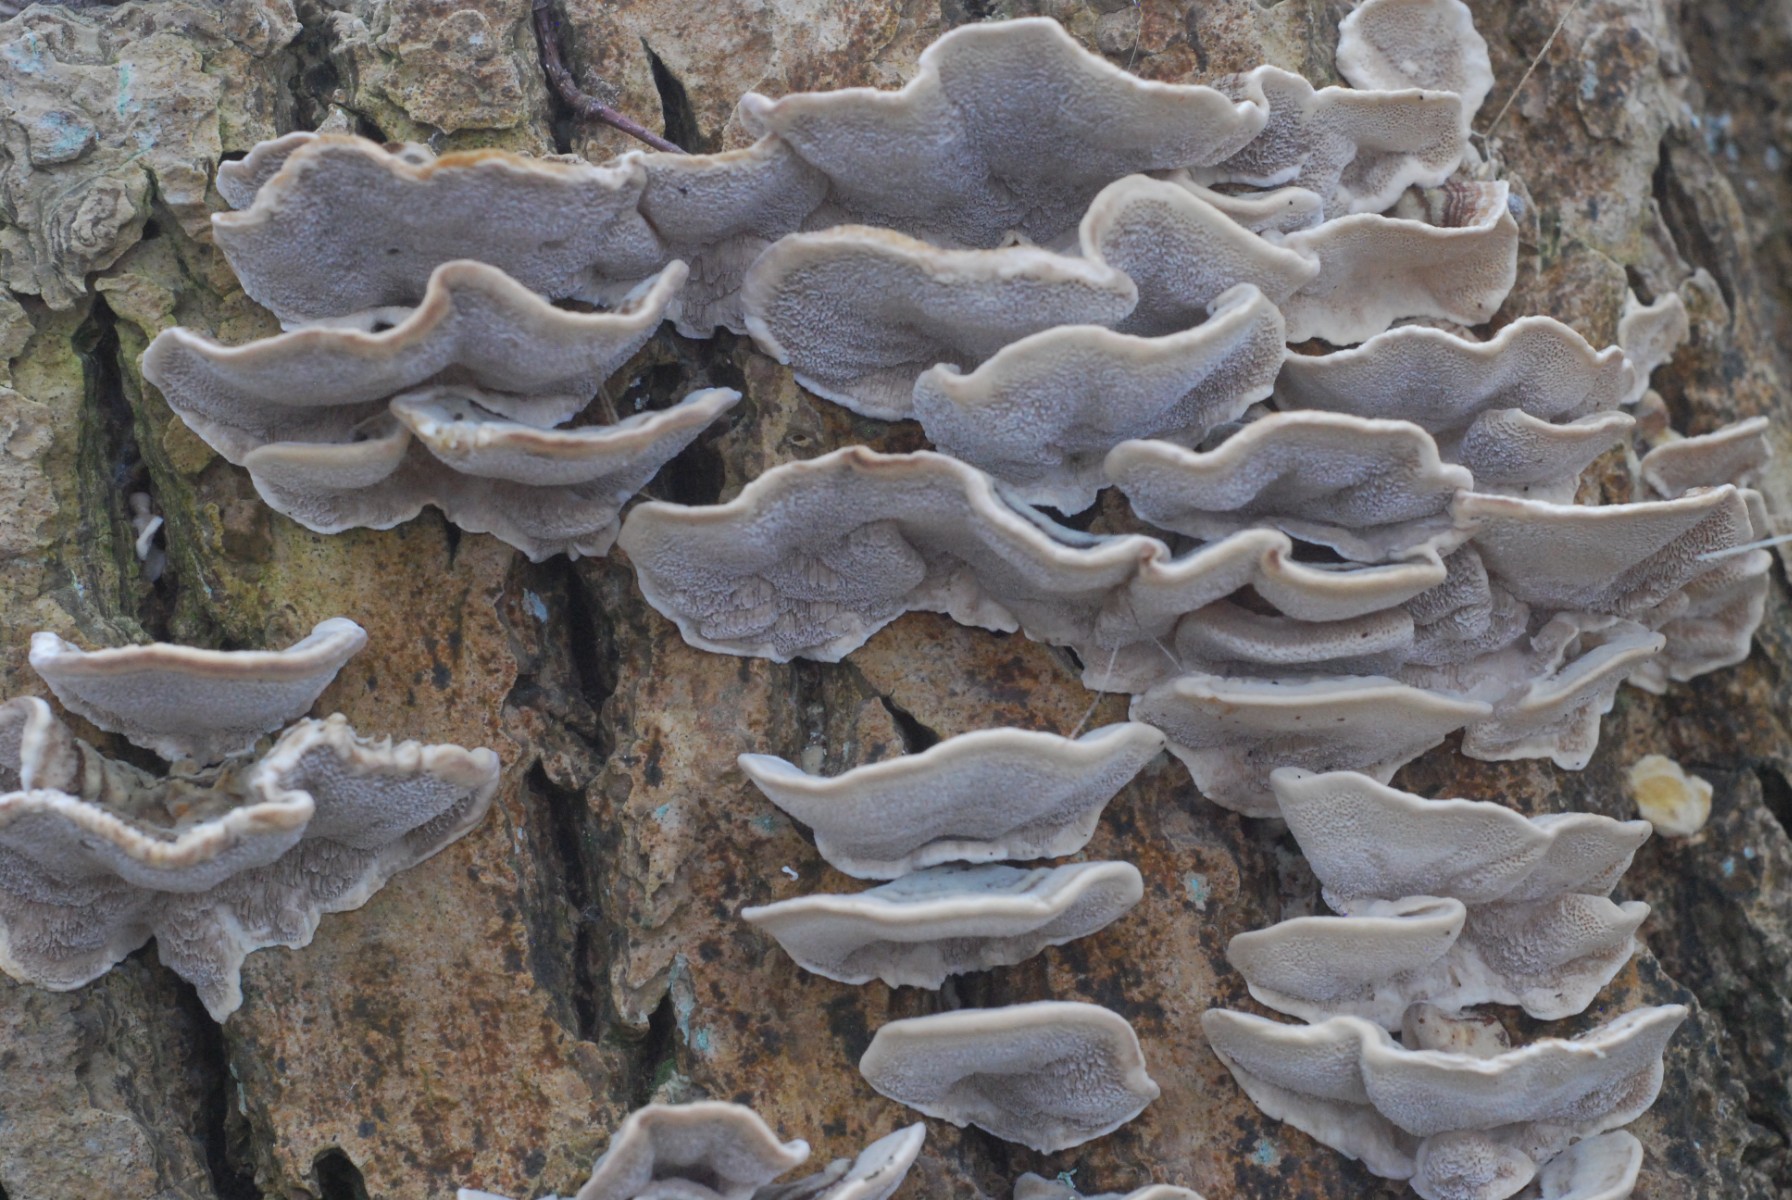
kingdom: Fungi
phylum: Basidiomycota
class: Agaricomycetes
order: Polyporales
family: Polyporaceae
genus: Trametes
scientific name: Trametes versicolor
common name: broget læderporesvamp
